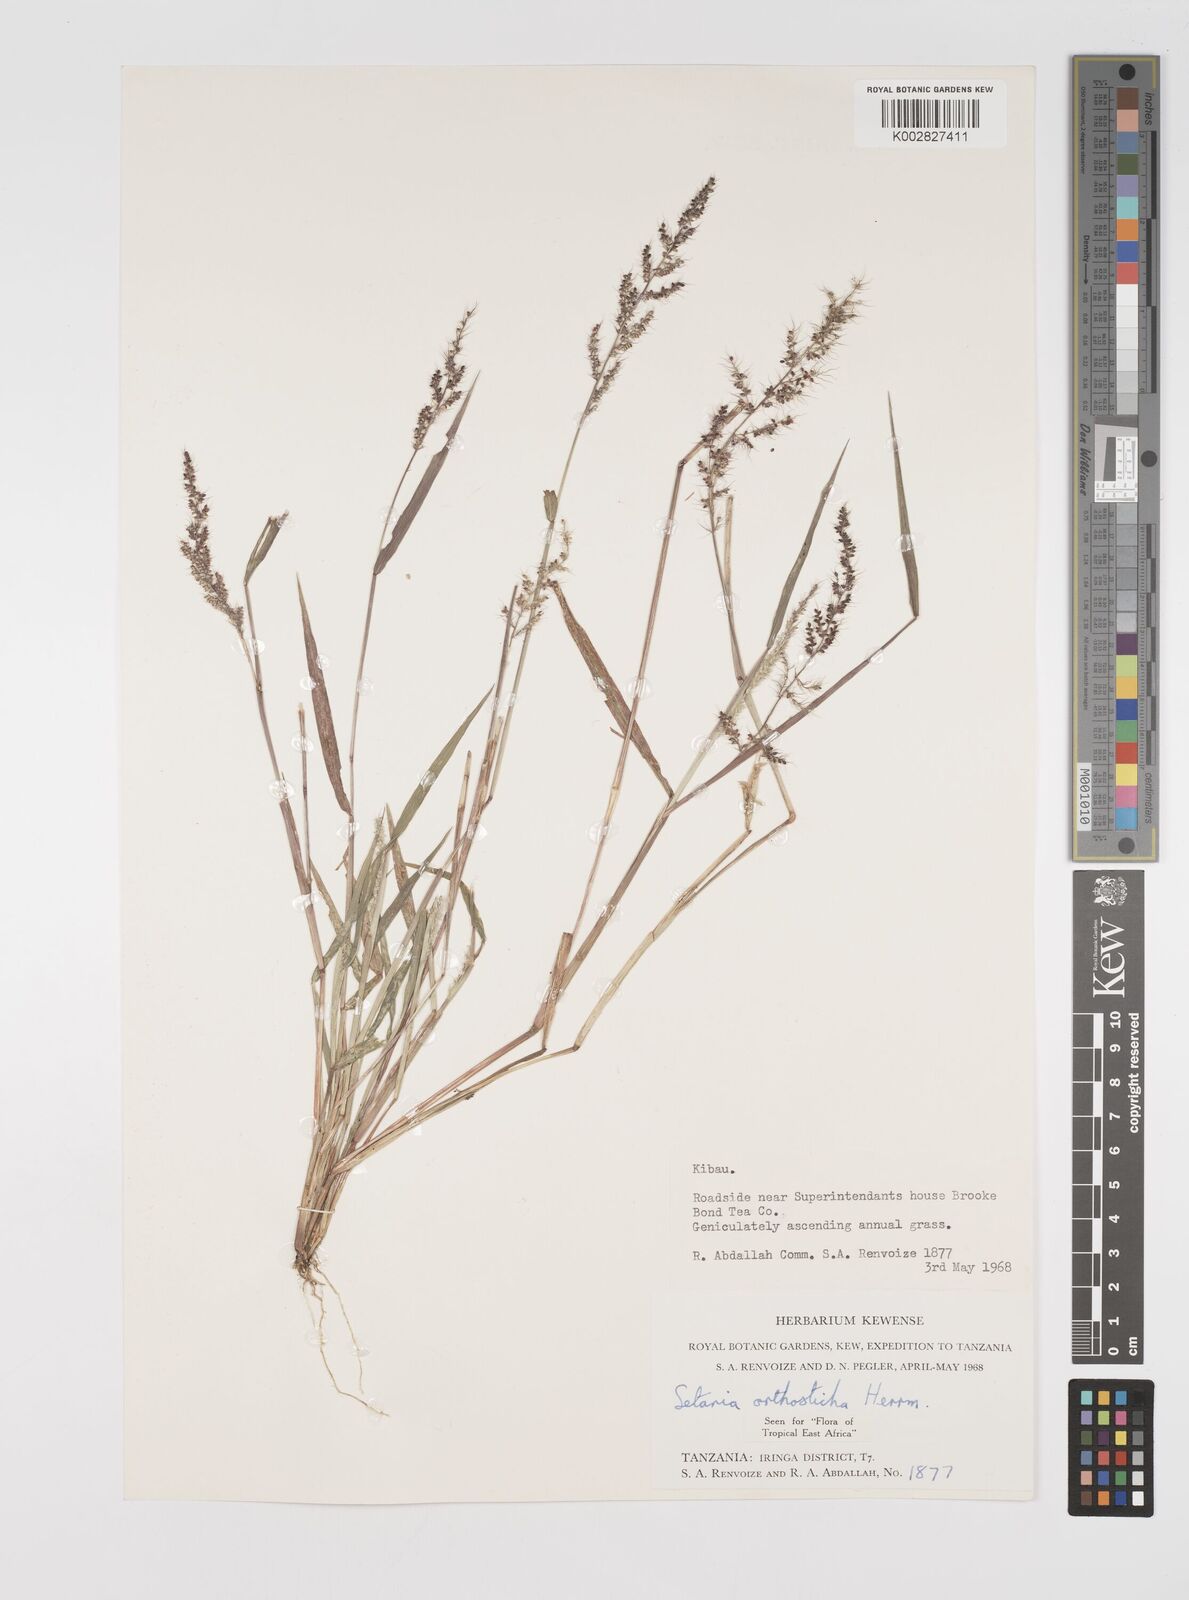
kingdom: Plantae
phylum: Tracheophyta
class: Liliopsida
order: Poales
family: Poaceae
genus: Setaria
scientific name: Setaria orthosticha
